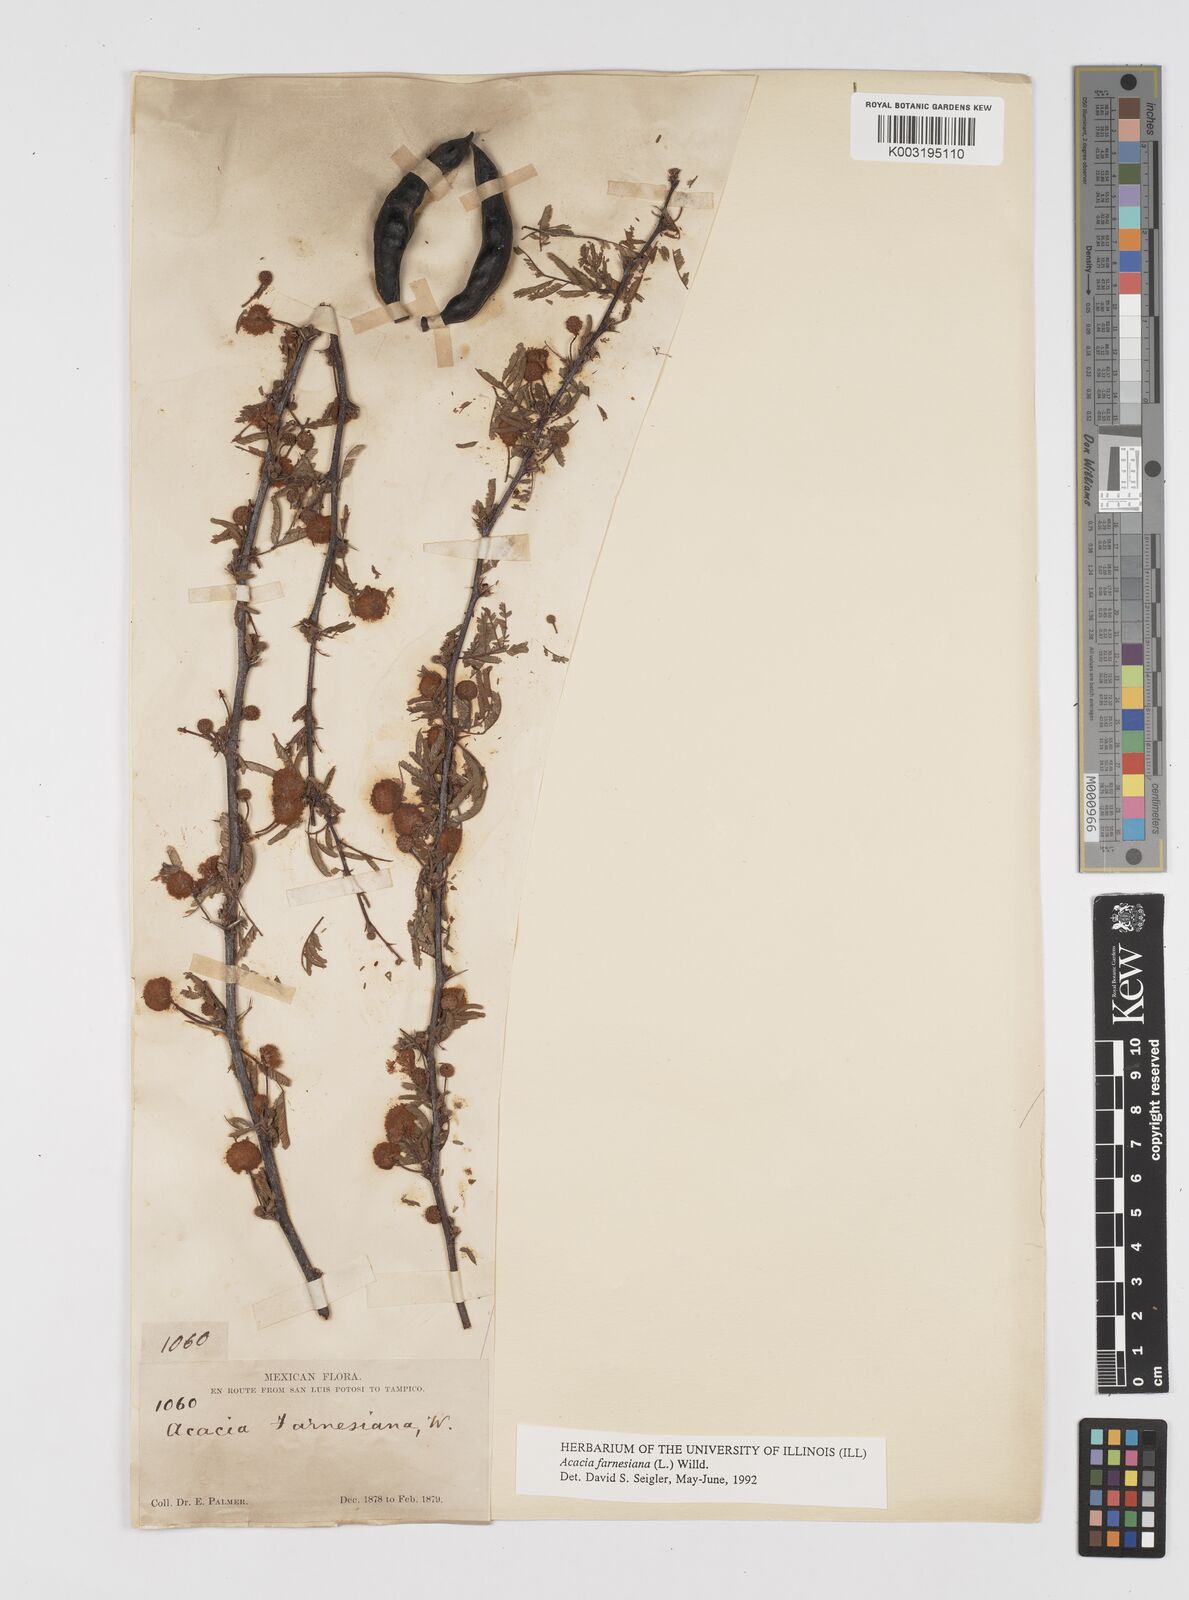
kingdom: Plantae
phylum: Tracheophyta
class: Magnoliopsida
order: Fabales
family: Fabaceae
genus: Vachellia
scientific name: Vachellia farnesiana
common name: Sweet acacia
